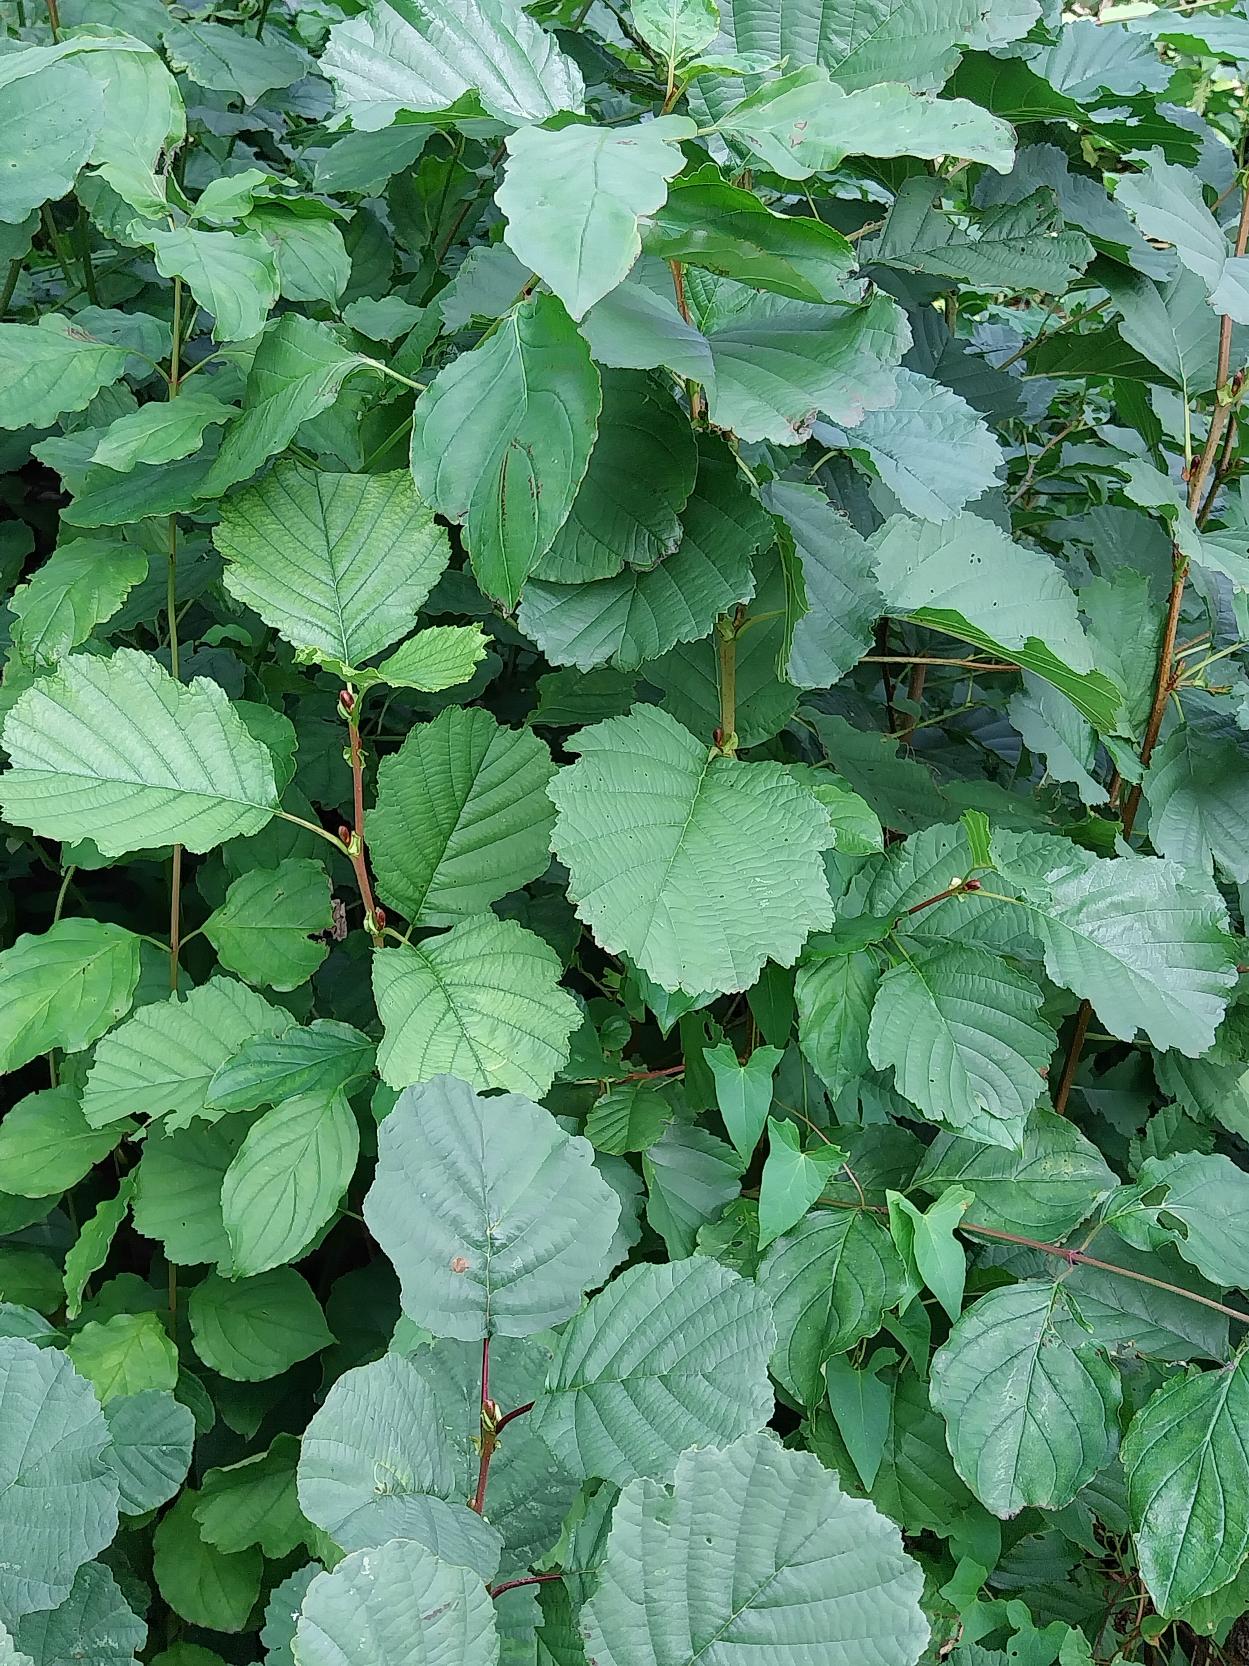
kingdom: Plantae
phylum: Tracheophyta
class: Magnoliopsida
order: Fagales
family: Betulaceae
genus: Alnus
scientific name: Alnus glutinosa
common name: Rød-el
